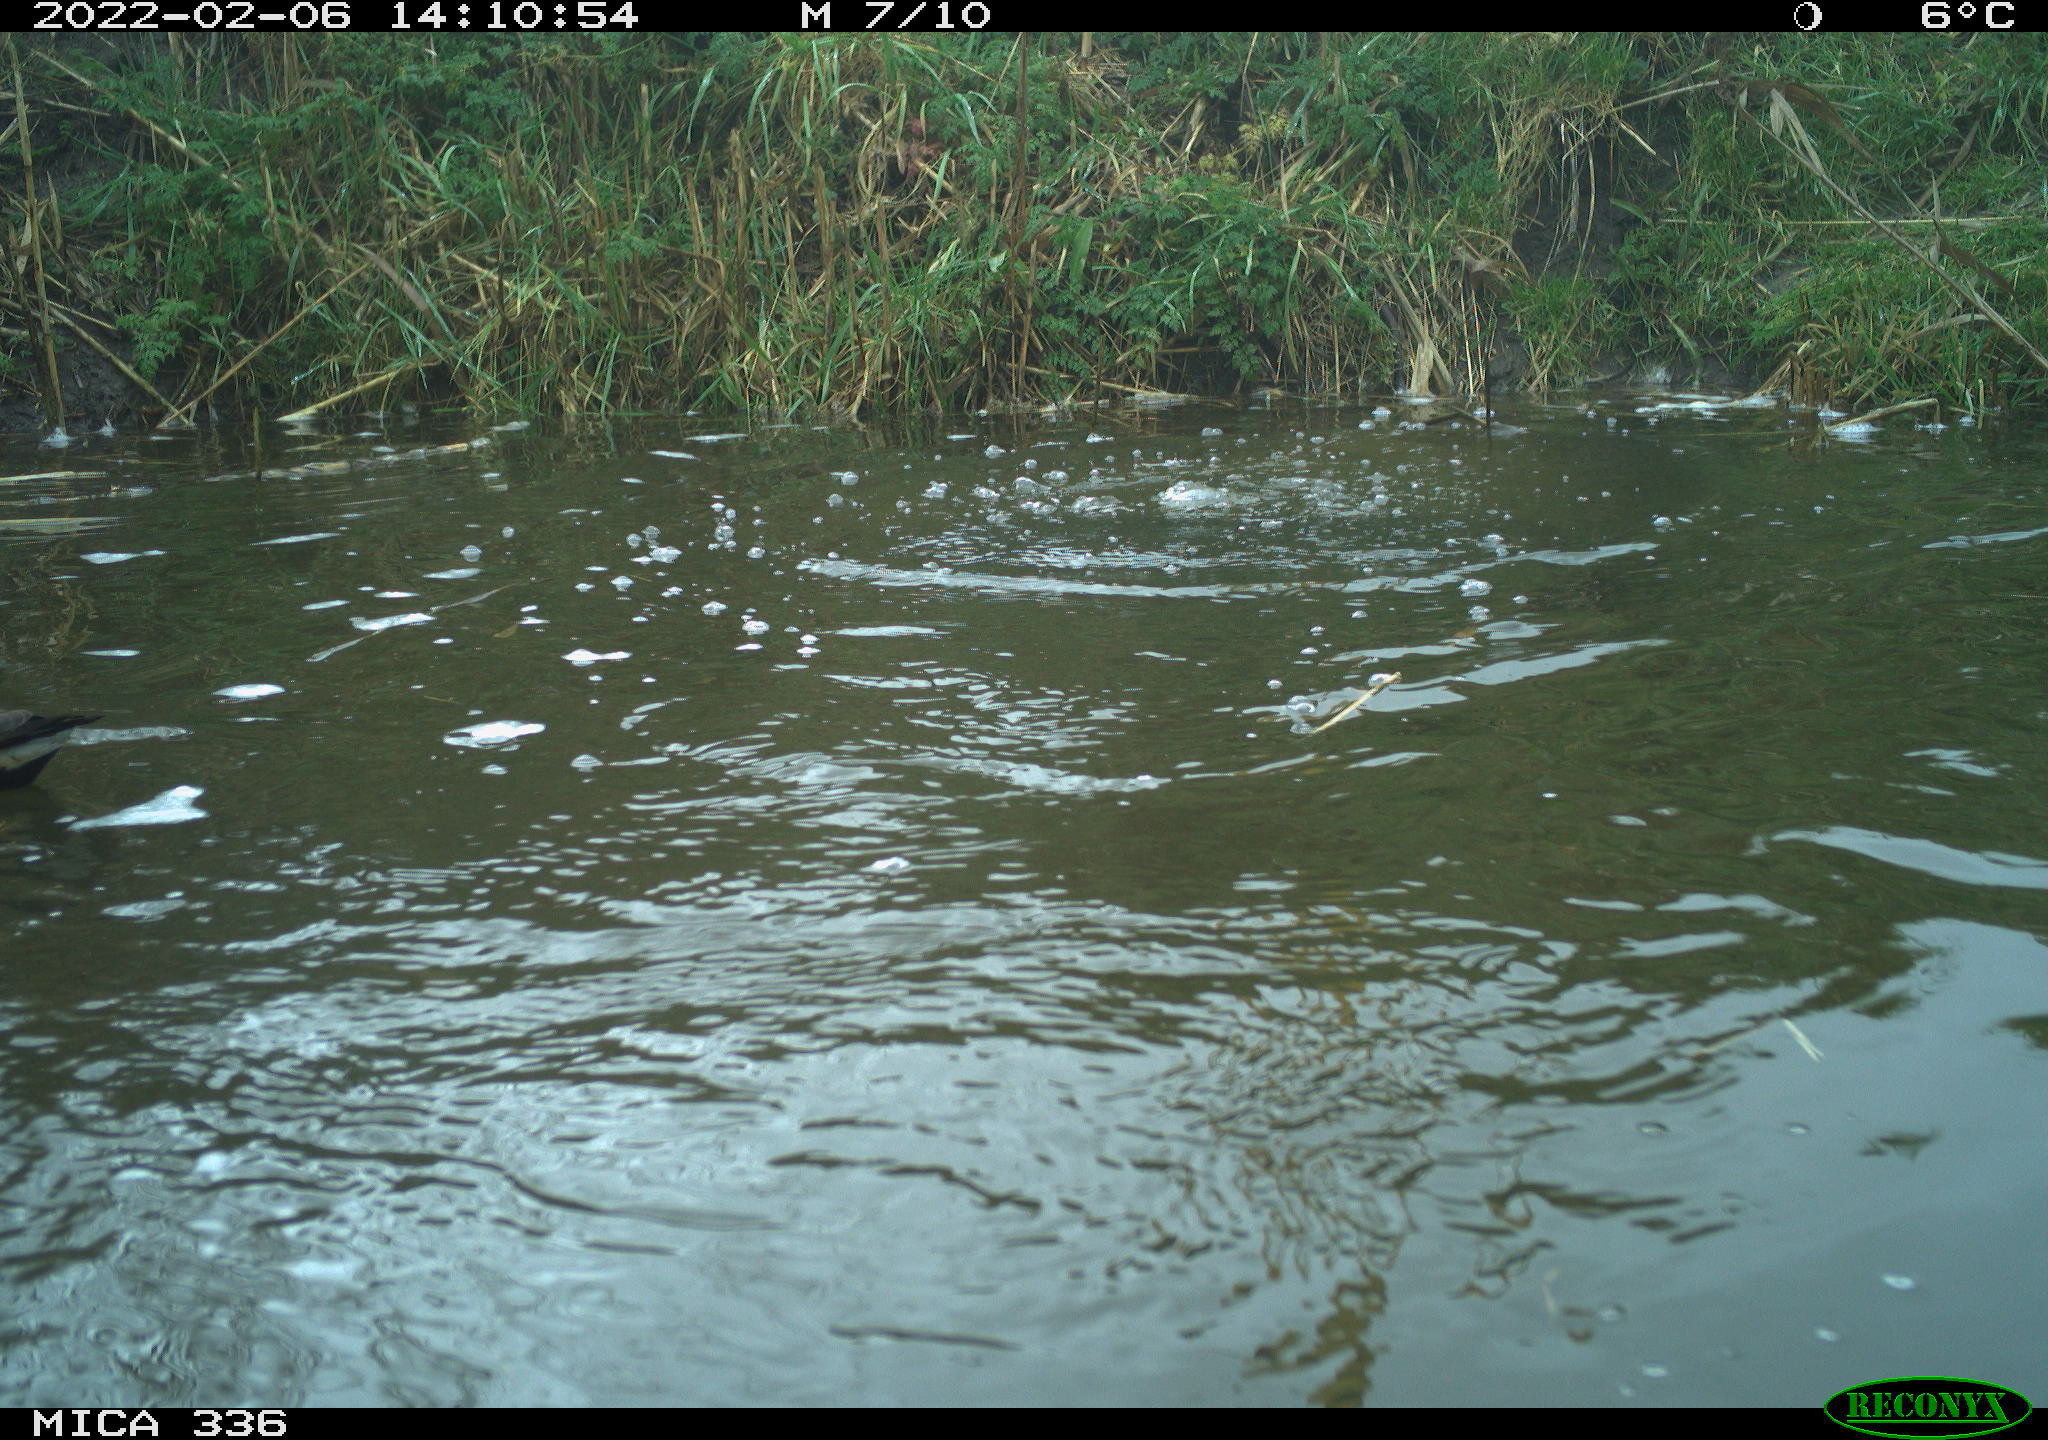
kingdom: Animalia
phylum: Chordata
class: Aves
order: Gruiformes
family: Rallidae
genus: Gallinula
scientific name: Gallinula chloropus
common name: Common moorhen
